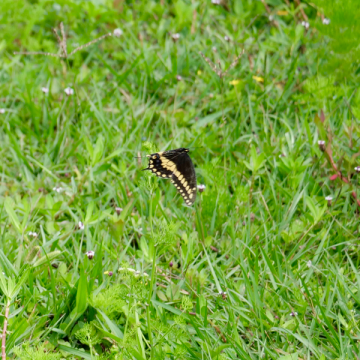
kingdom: Animalia
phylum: Arthropoda
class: Insecta
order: Lepidoptera
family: Papilionidae
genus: Papilio
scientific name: Papilio polyxenes
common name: Black Swallowtail
